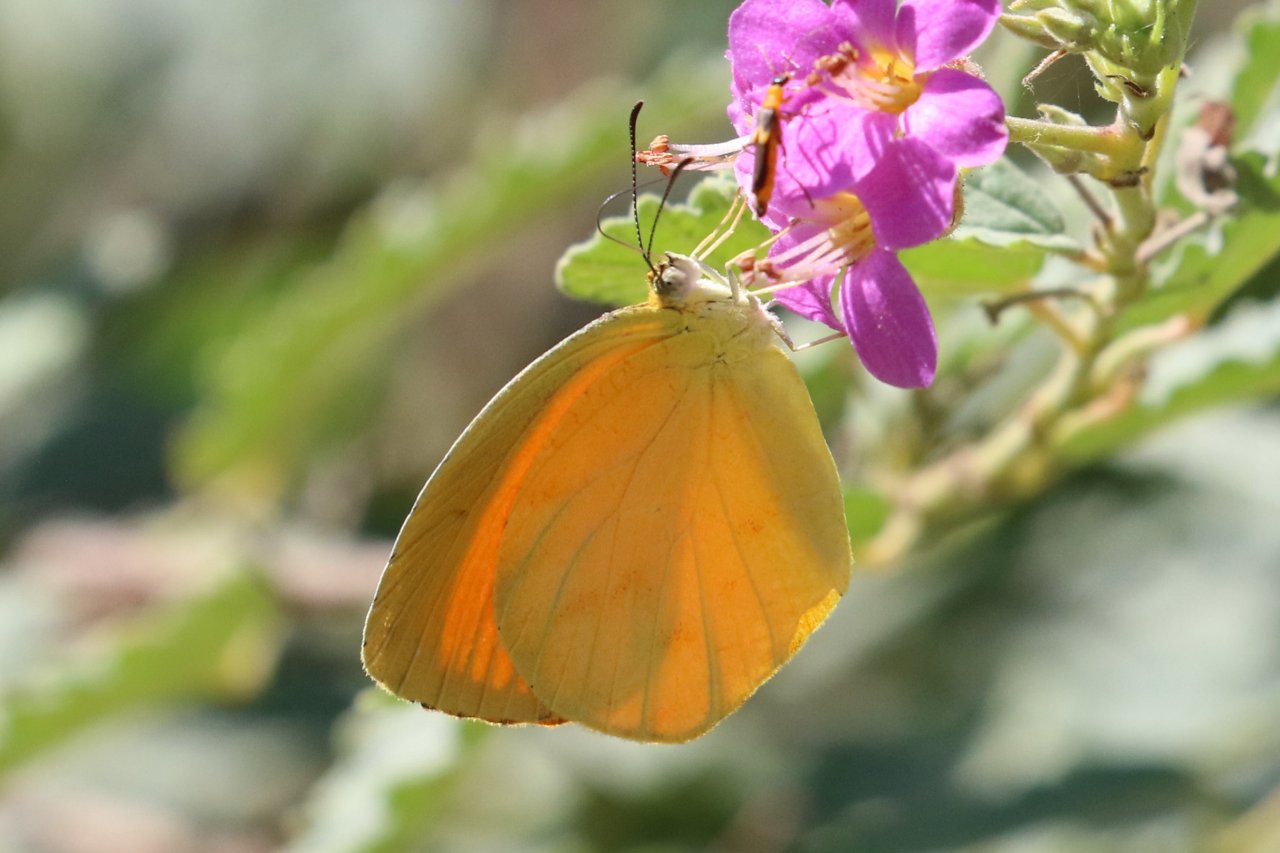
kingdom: Animalia
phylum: Arthropoda
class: Insecta
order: Lepidoptera
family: Pieridae
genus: Pyrisitia
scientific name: Pyrisitia proterpia
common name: Tailed Orange
